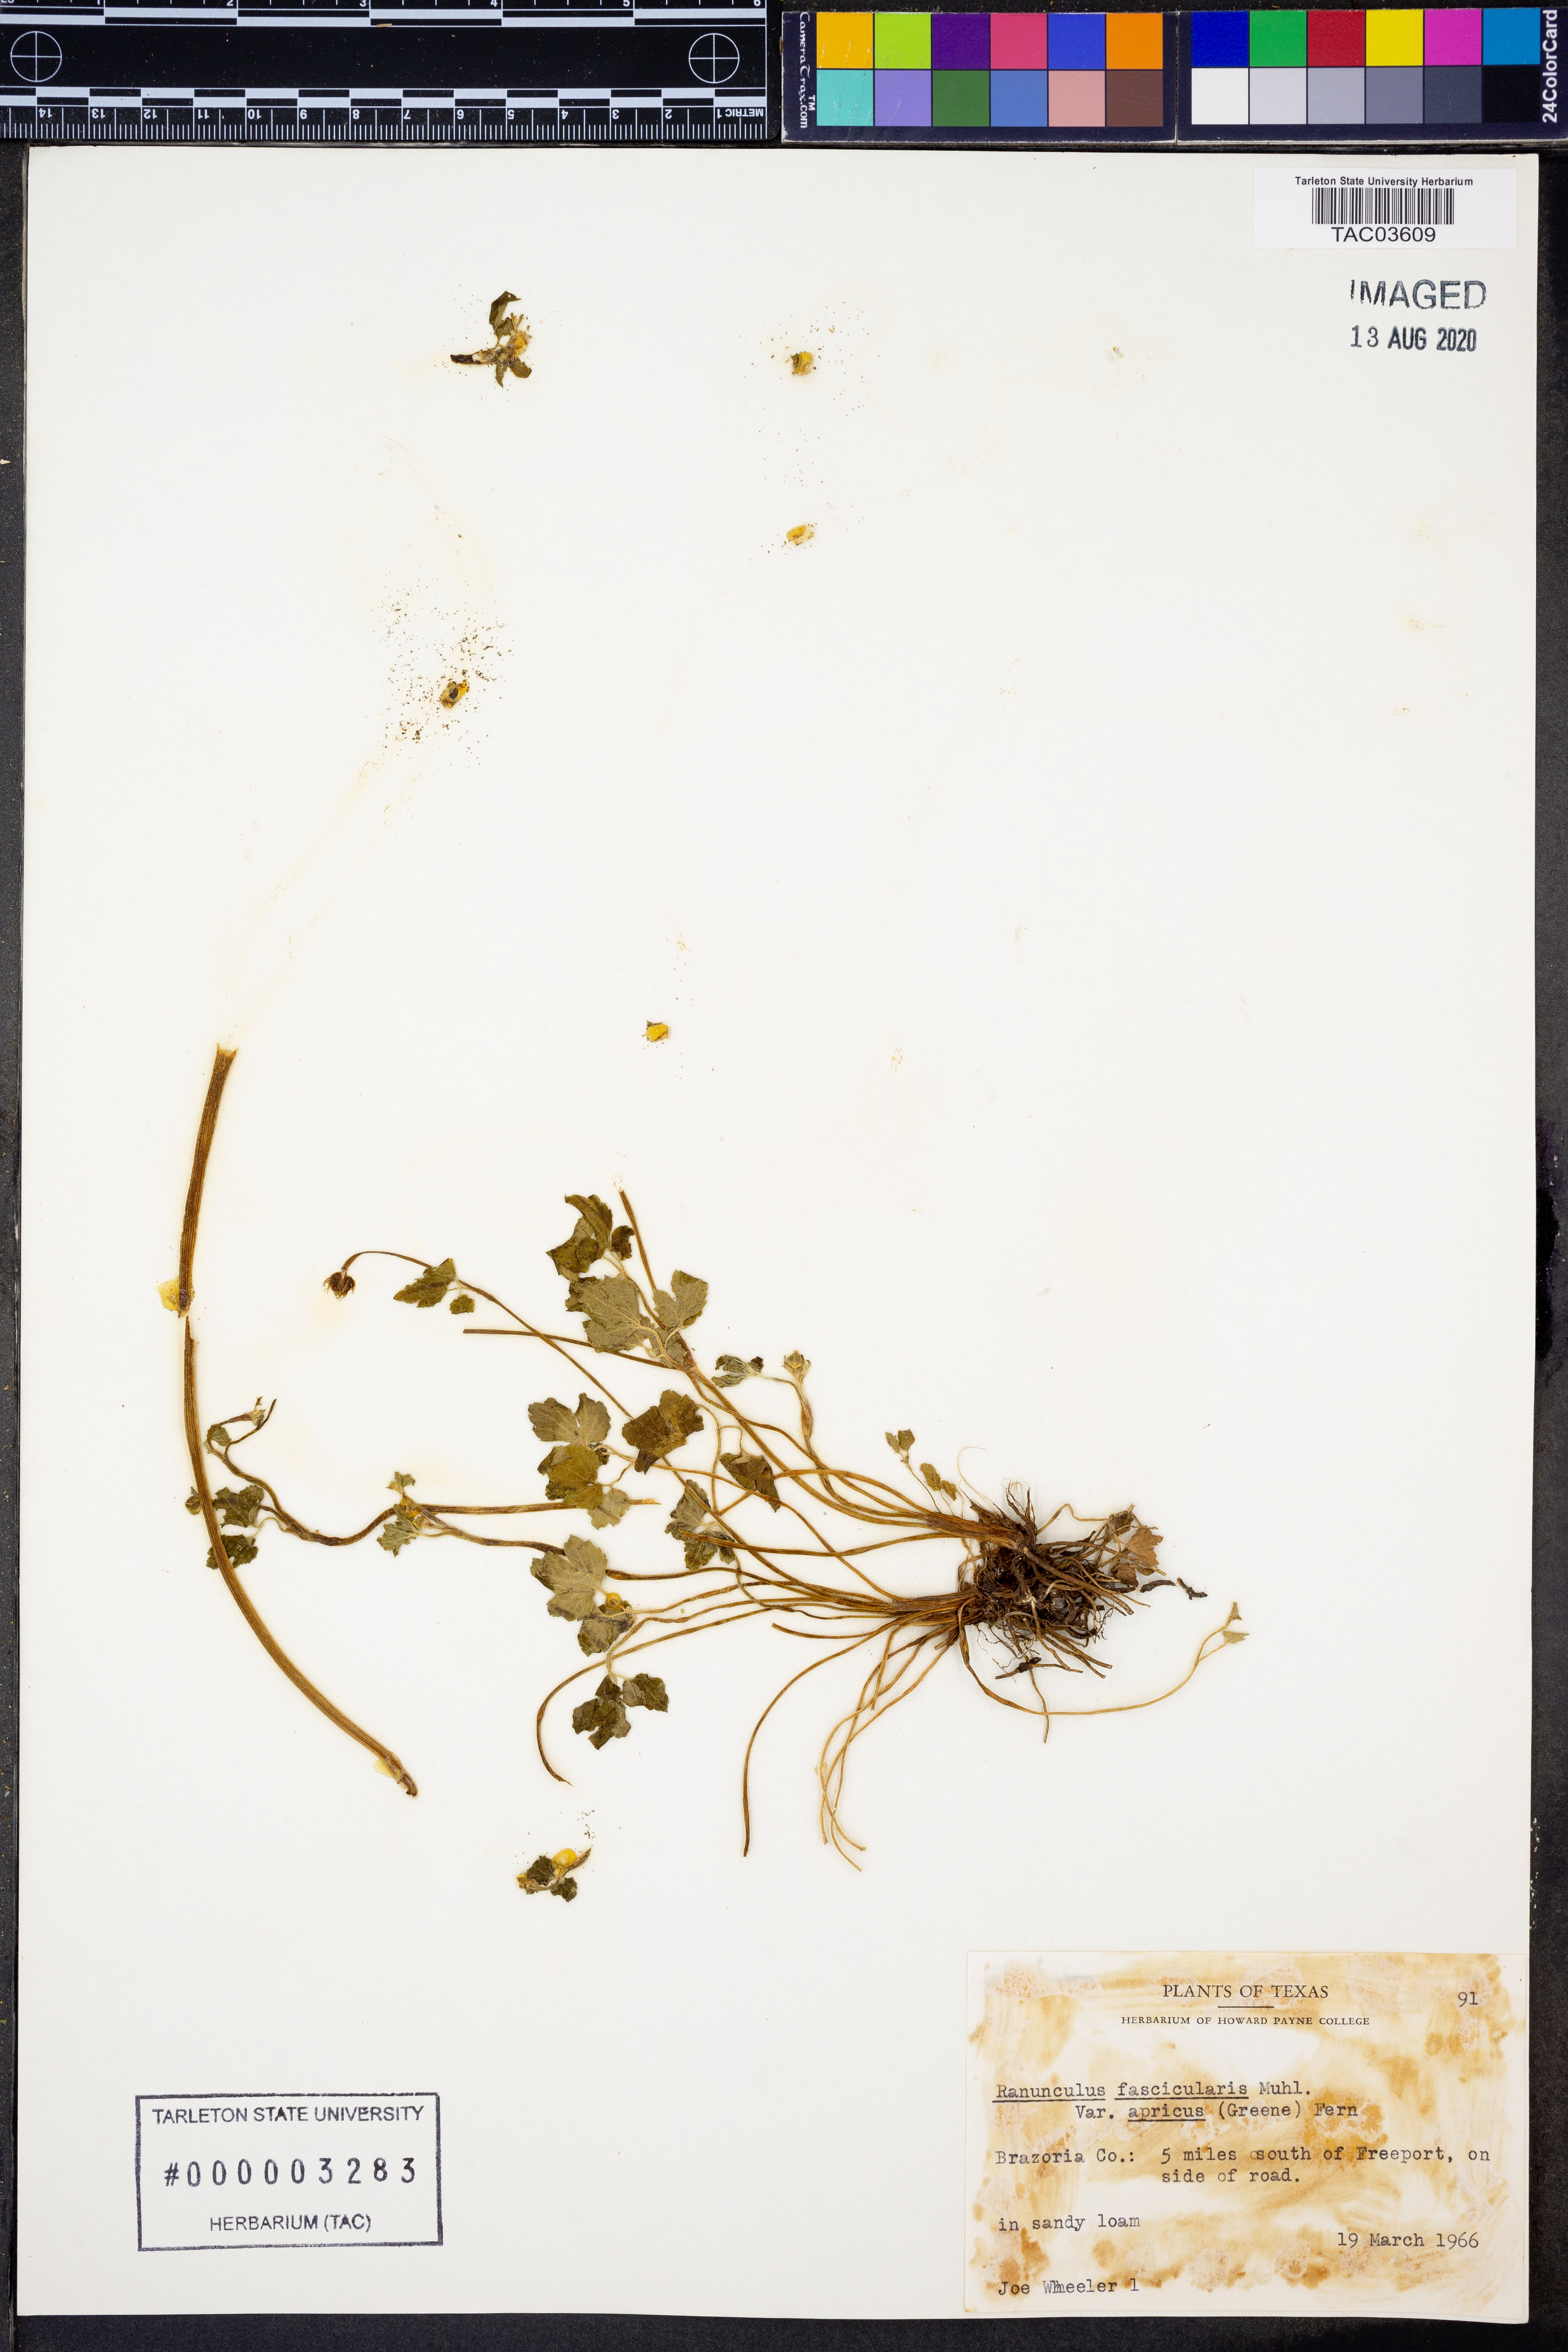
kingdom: Plantae
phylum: Tracheophyta
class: Magnoliopsida
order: Ranunculales
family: Ranunculaceae
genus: Ranunculus
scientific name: Ranunculus fascicularis
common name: Early buttercup
